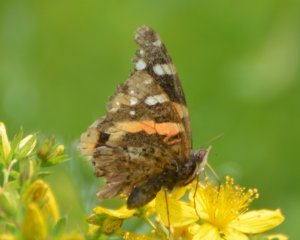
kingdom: Animalia
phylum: Arthropoda
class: Insecta
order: Lepidoptera
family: Nymphalidae
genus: Vanessa
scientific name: Vanessa atalanta
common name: Red Admiral
